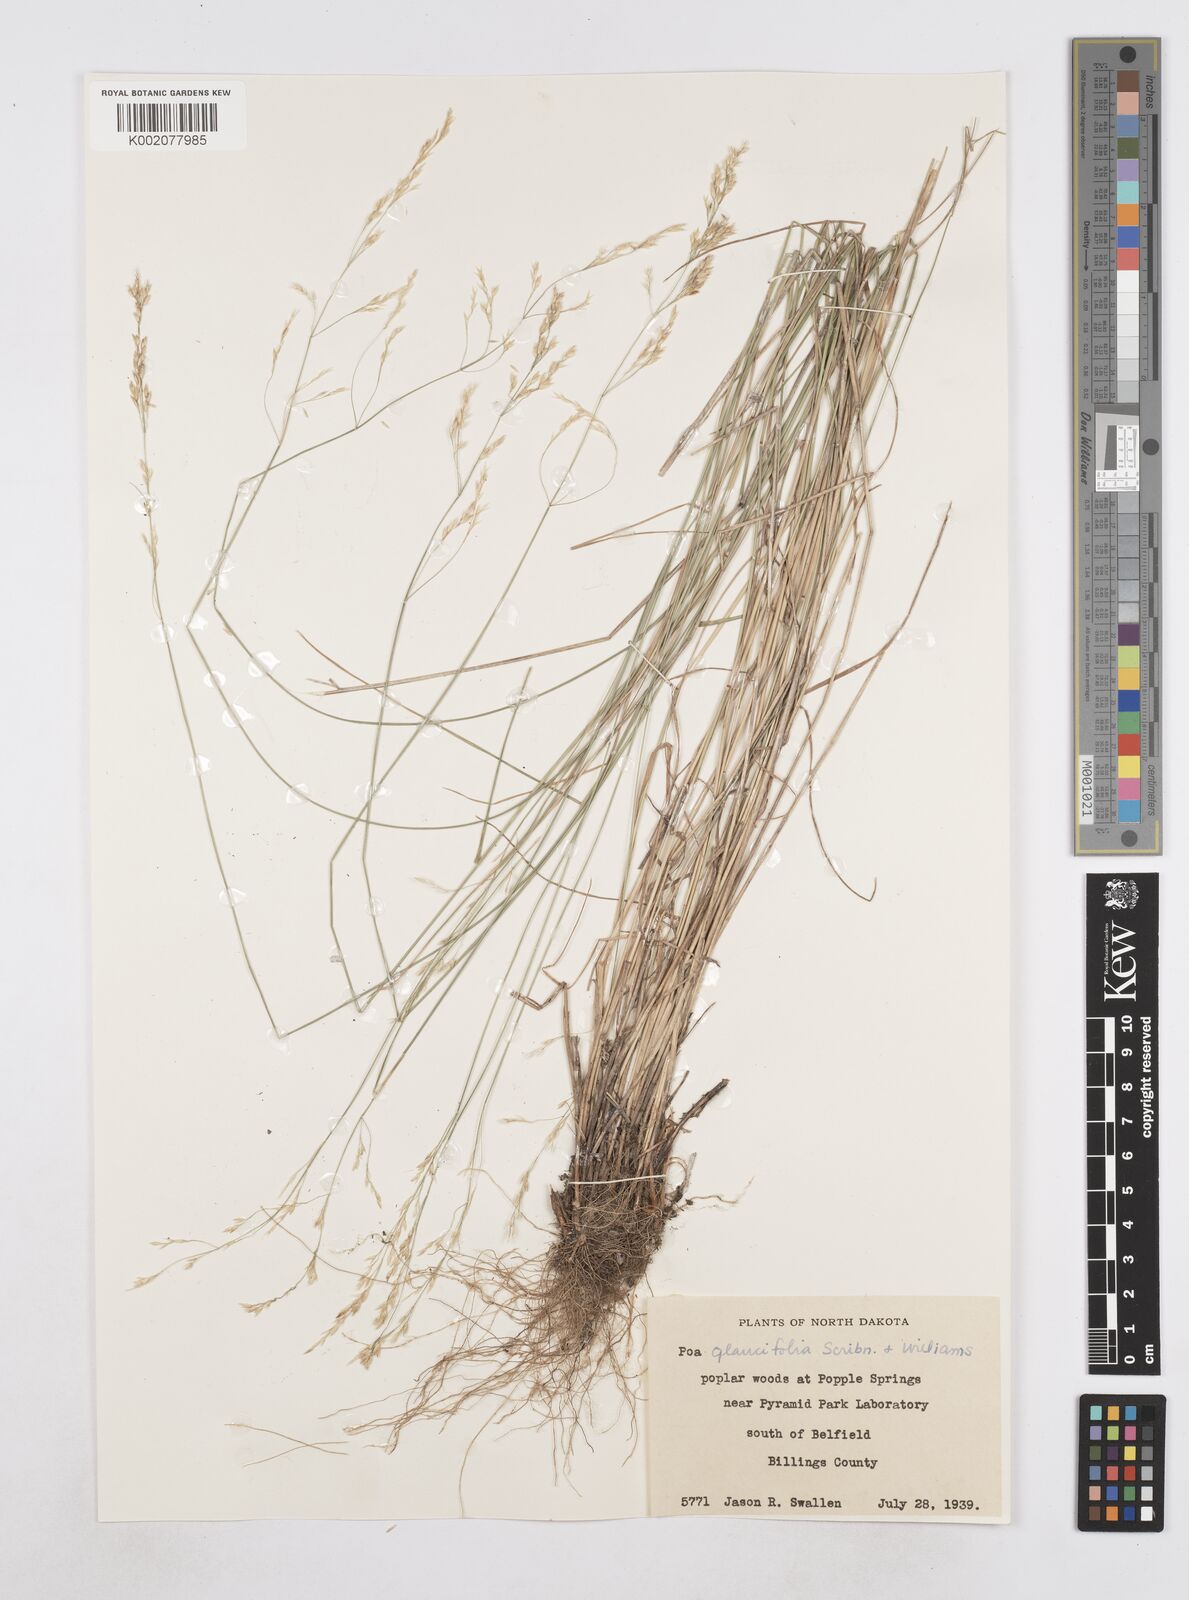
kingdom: Plantae
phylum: Tracheophyta
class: Liliopsida
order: Poales
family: Poaceae
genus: Poa
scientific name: Poa arida
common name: Plains bluegrass
